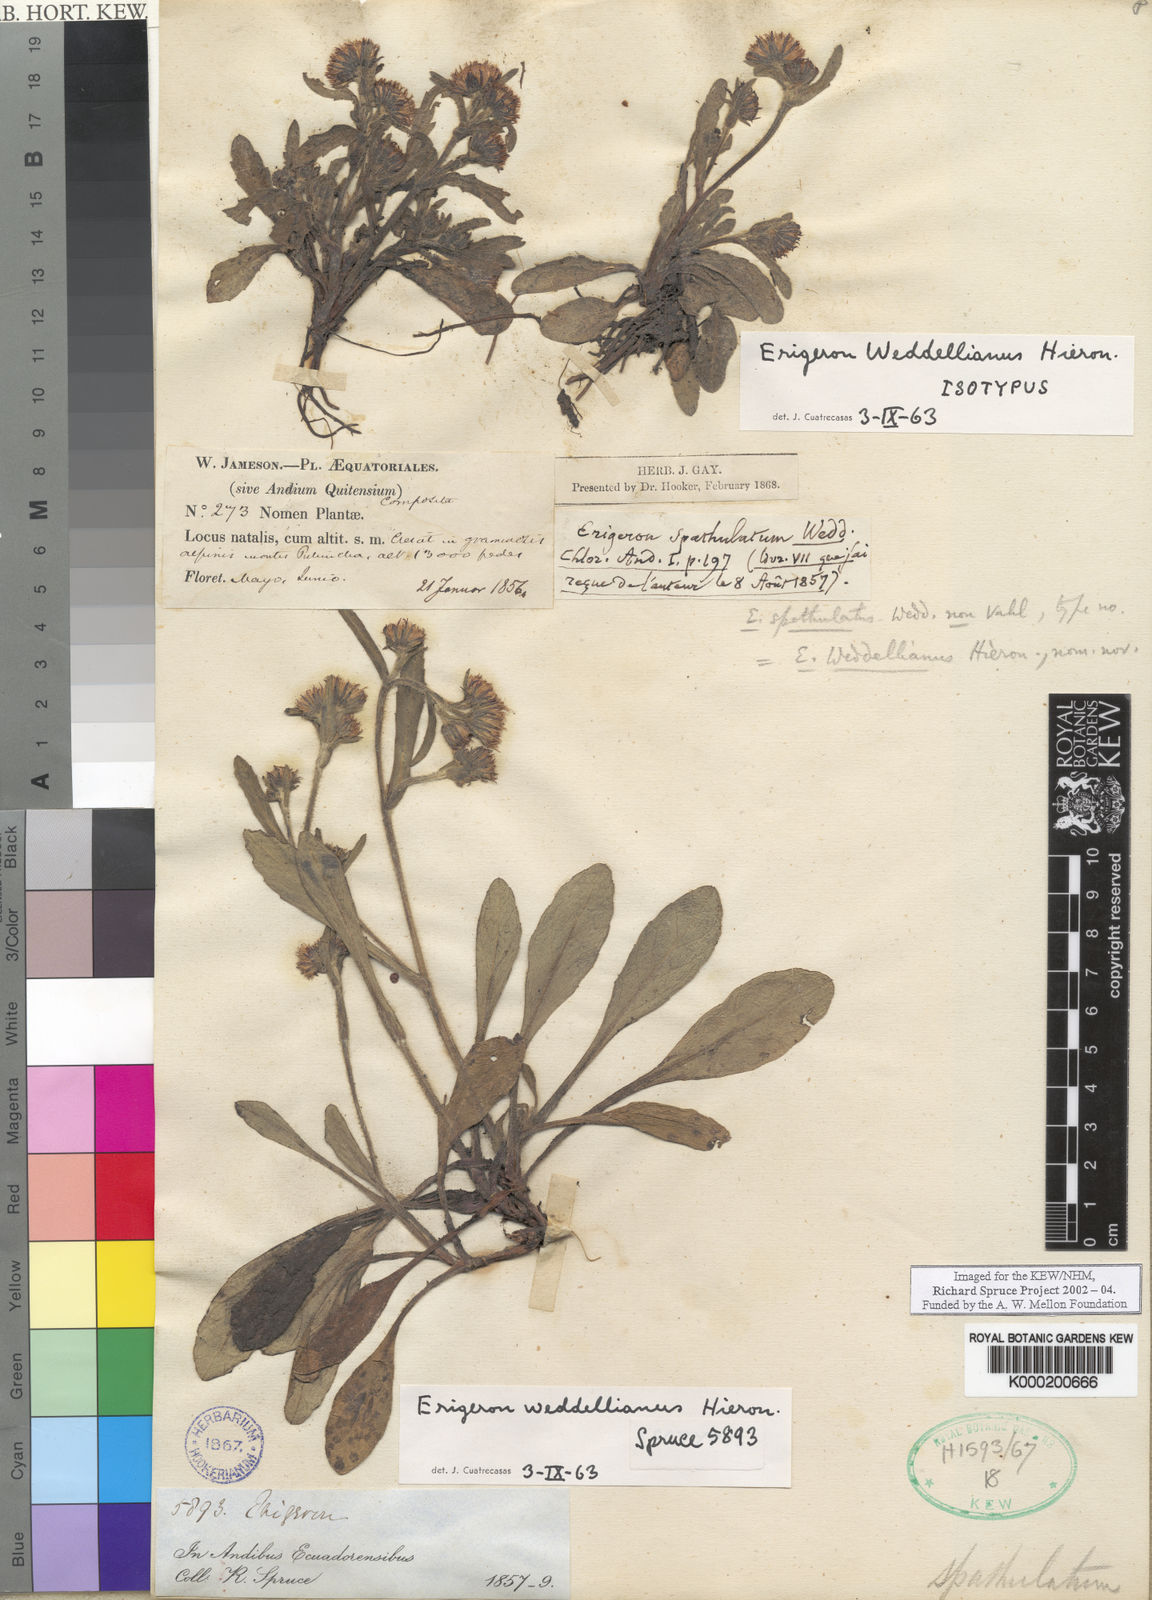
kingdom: Plantae
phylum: Tracheophyta
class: Magnoliopsida
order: Asterales
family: Asteraceae
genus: Erigeron
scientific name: Erigeron ecuadoriensis
